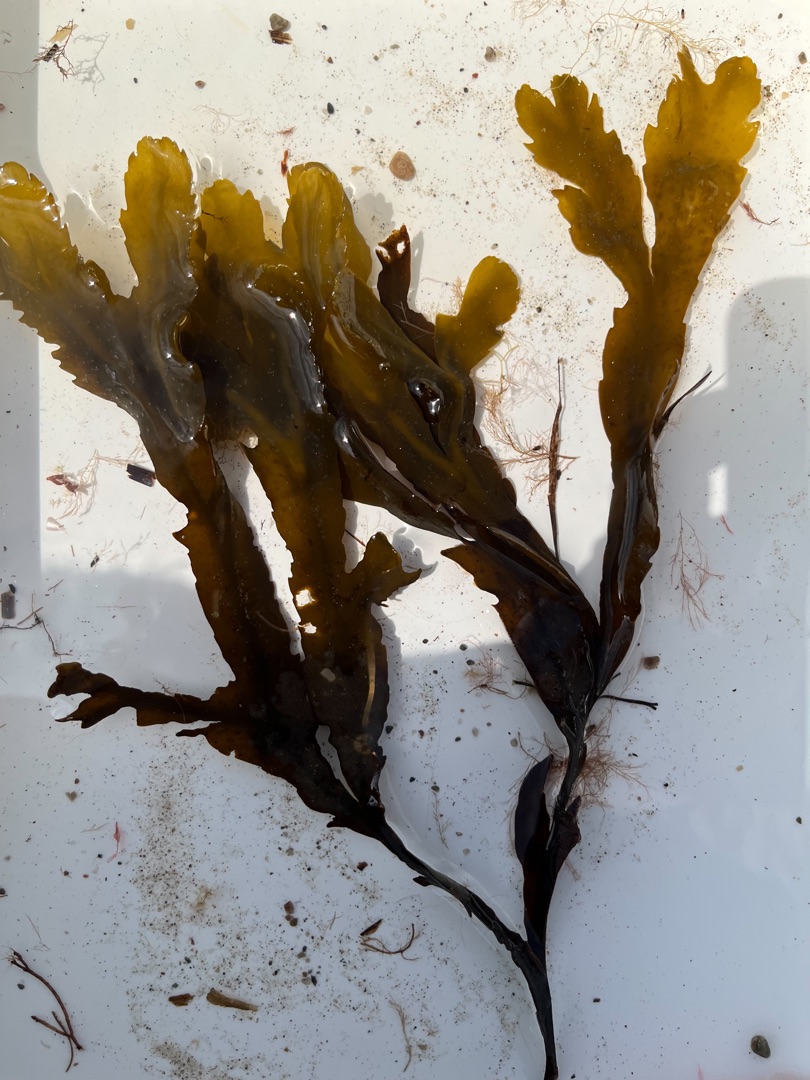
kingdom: Chromista
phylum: Ochrophyta
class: Phaeophyceae
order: Fucales
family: Fucaceae
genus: Fucus
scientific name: Fucus serratus
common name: Savtang
